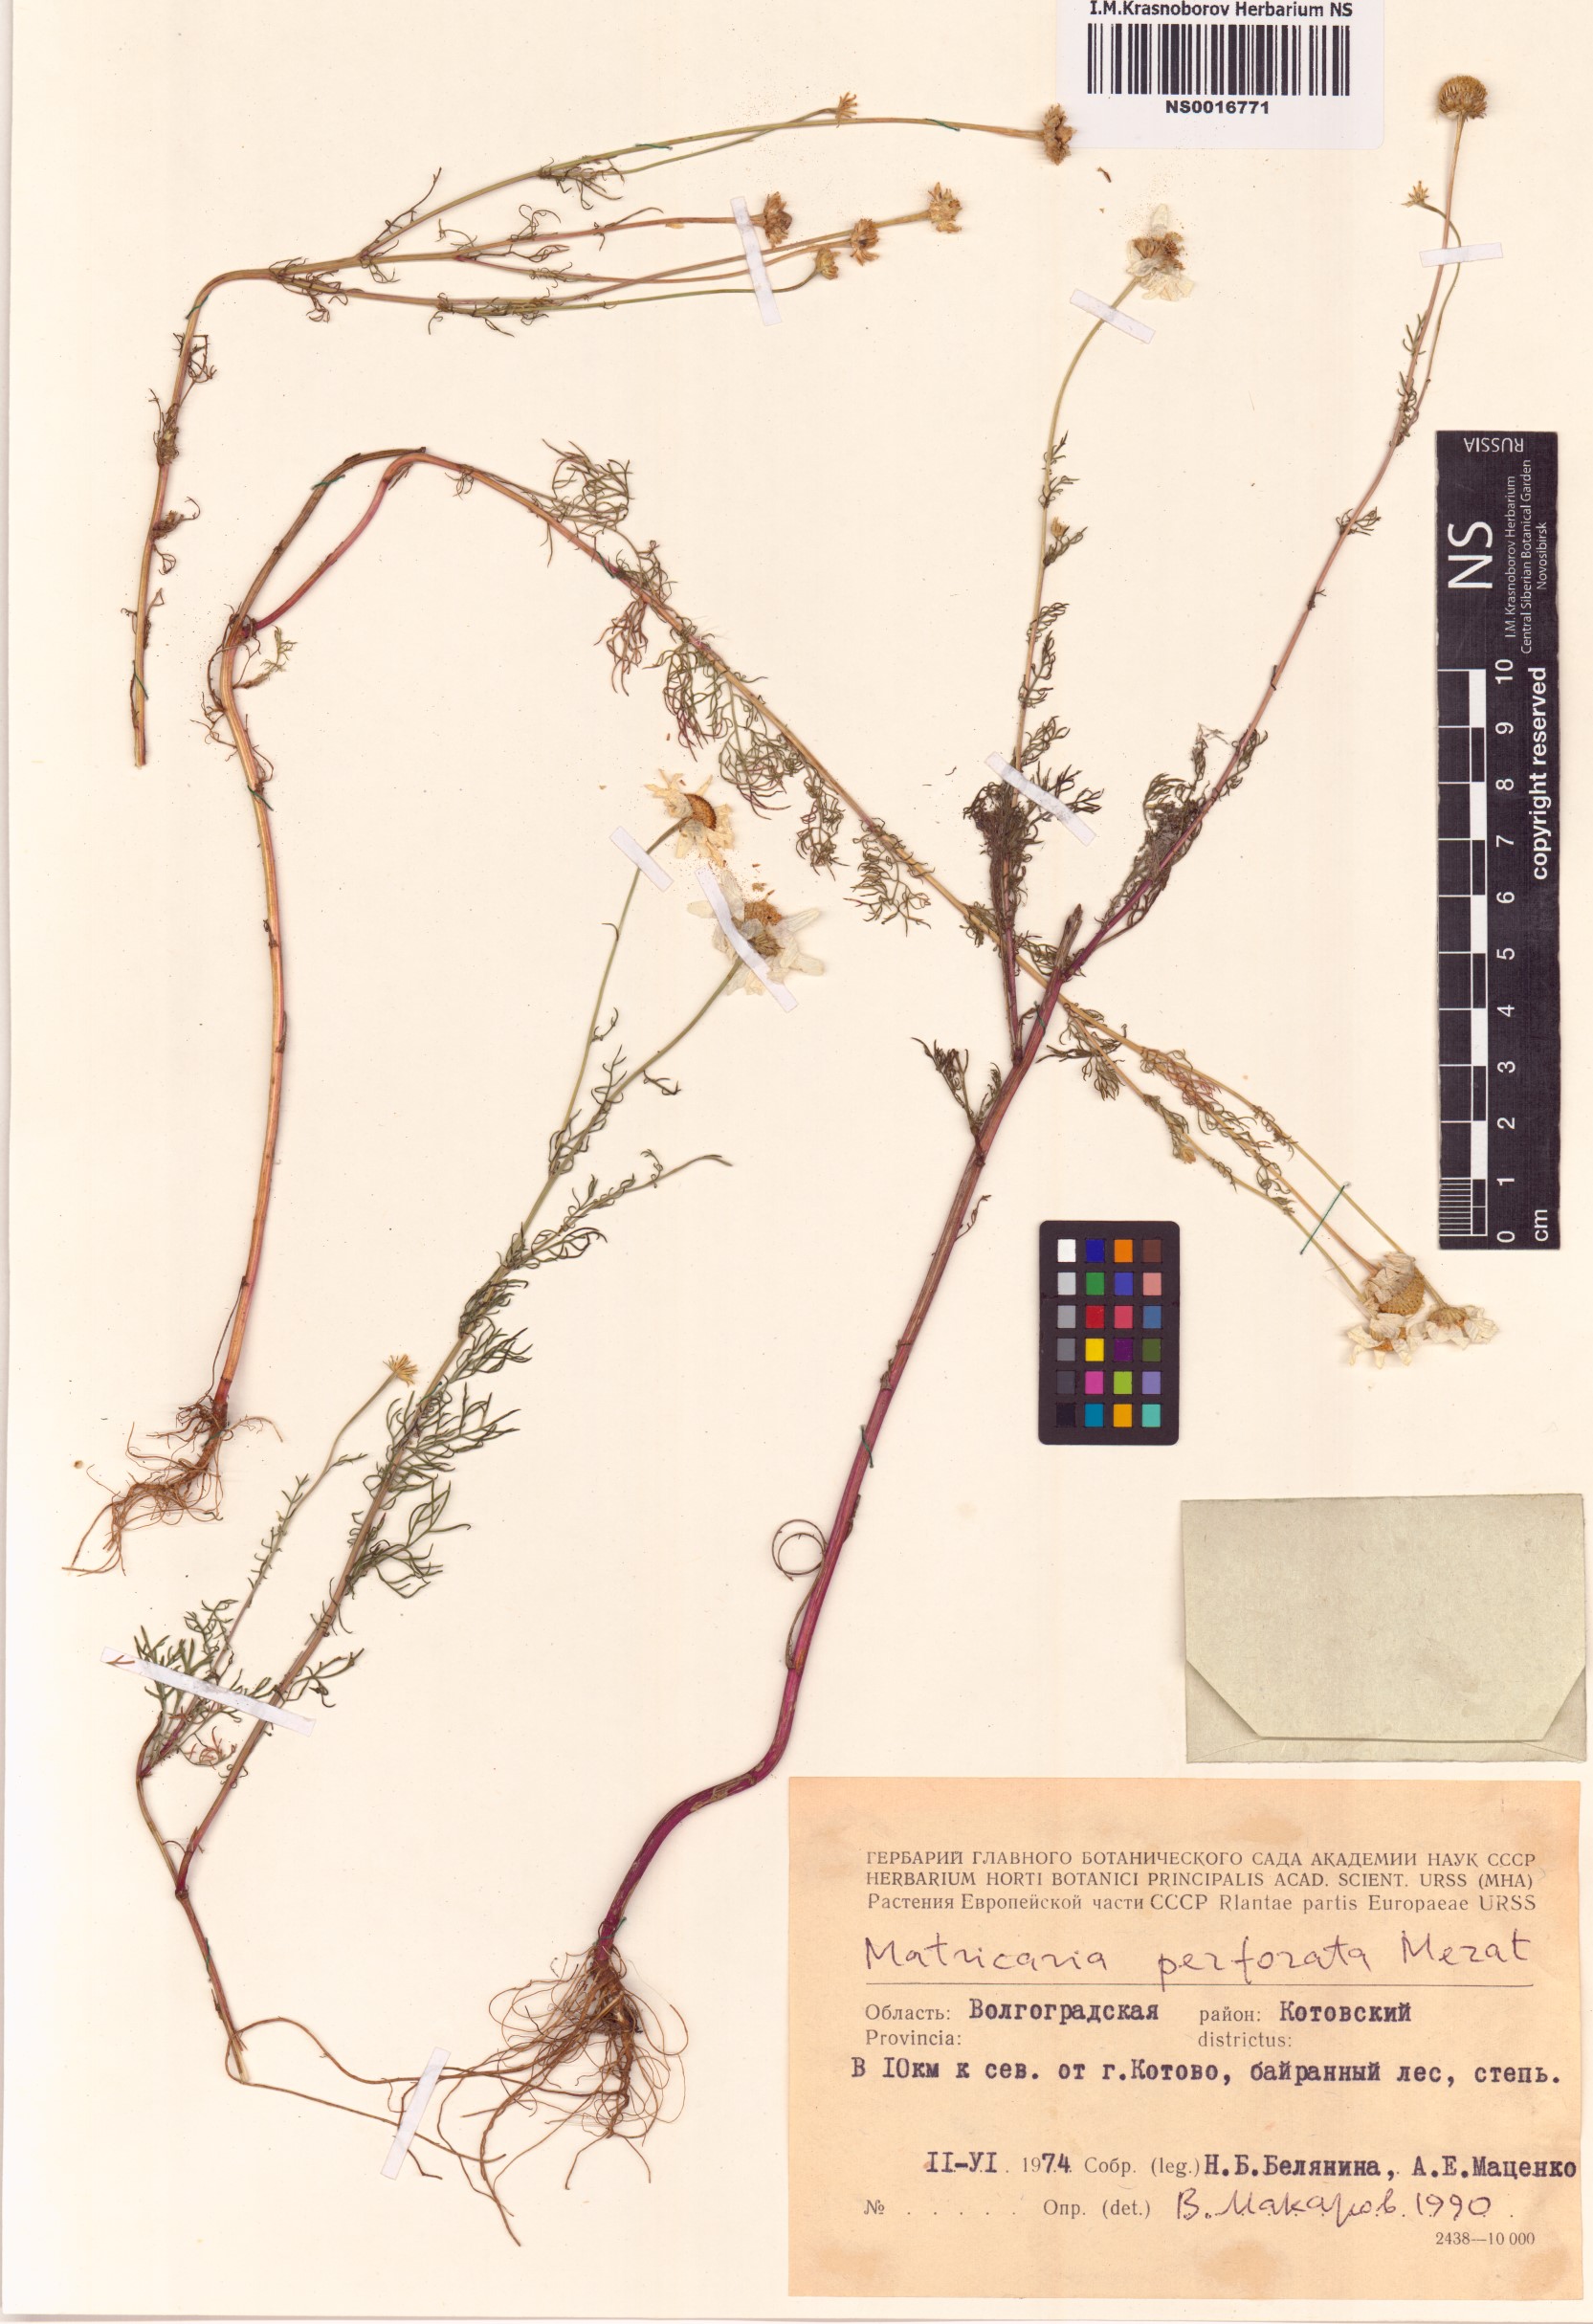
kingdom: Plantae
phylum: Tracheophyta
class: Magnoliopsida
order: Asterales
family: Asteraceae
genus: Tripleurospermum
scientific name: Tripleurospermum inodorum
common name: Scentless mayweed
